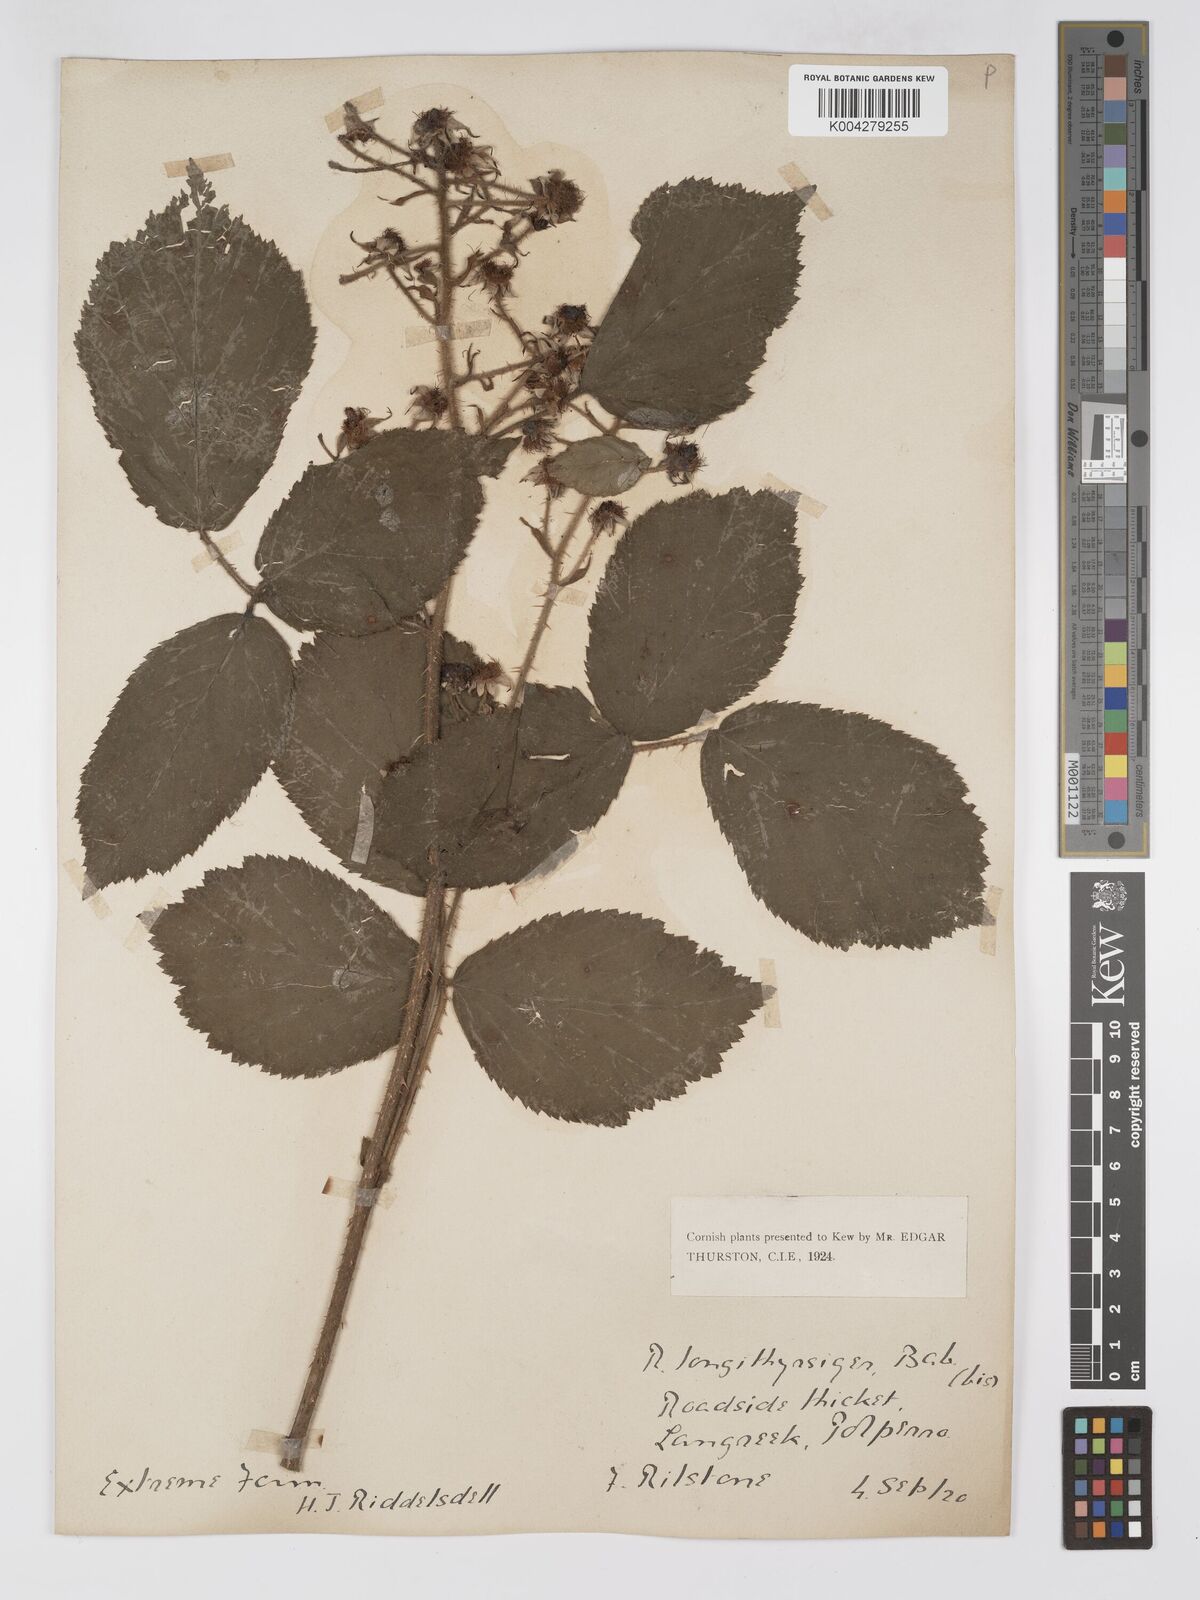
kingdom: Plantae
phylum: Tracheophyta
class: Magnoliopsida
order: Rosales
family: Rosaceae
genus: Rubus
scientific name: Rubus longithyrsiger
